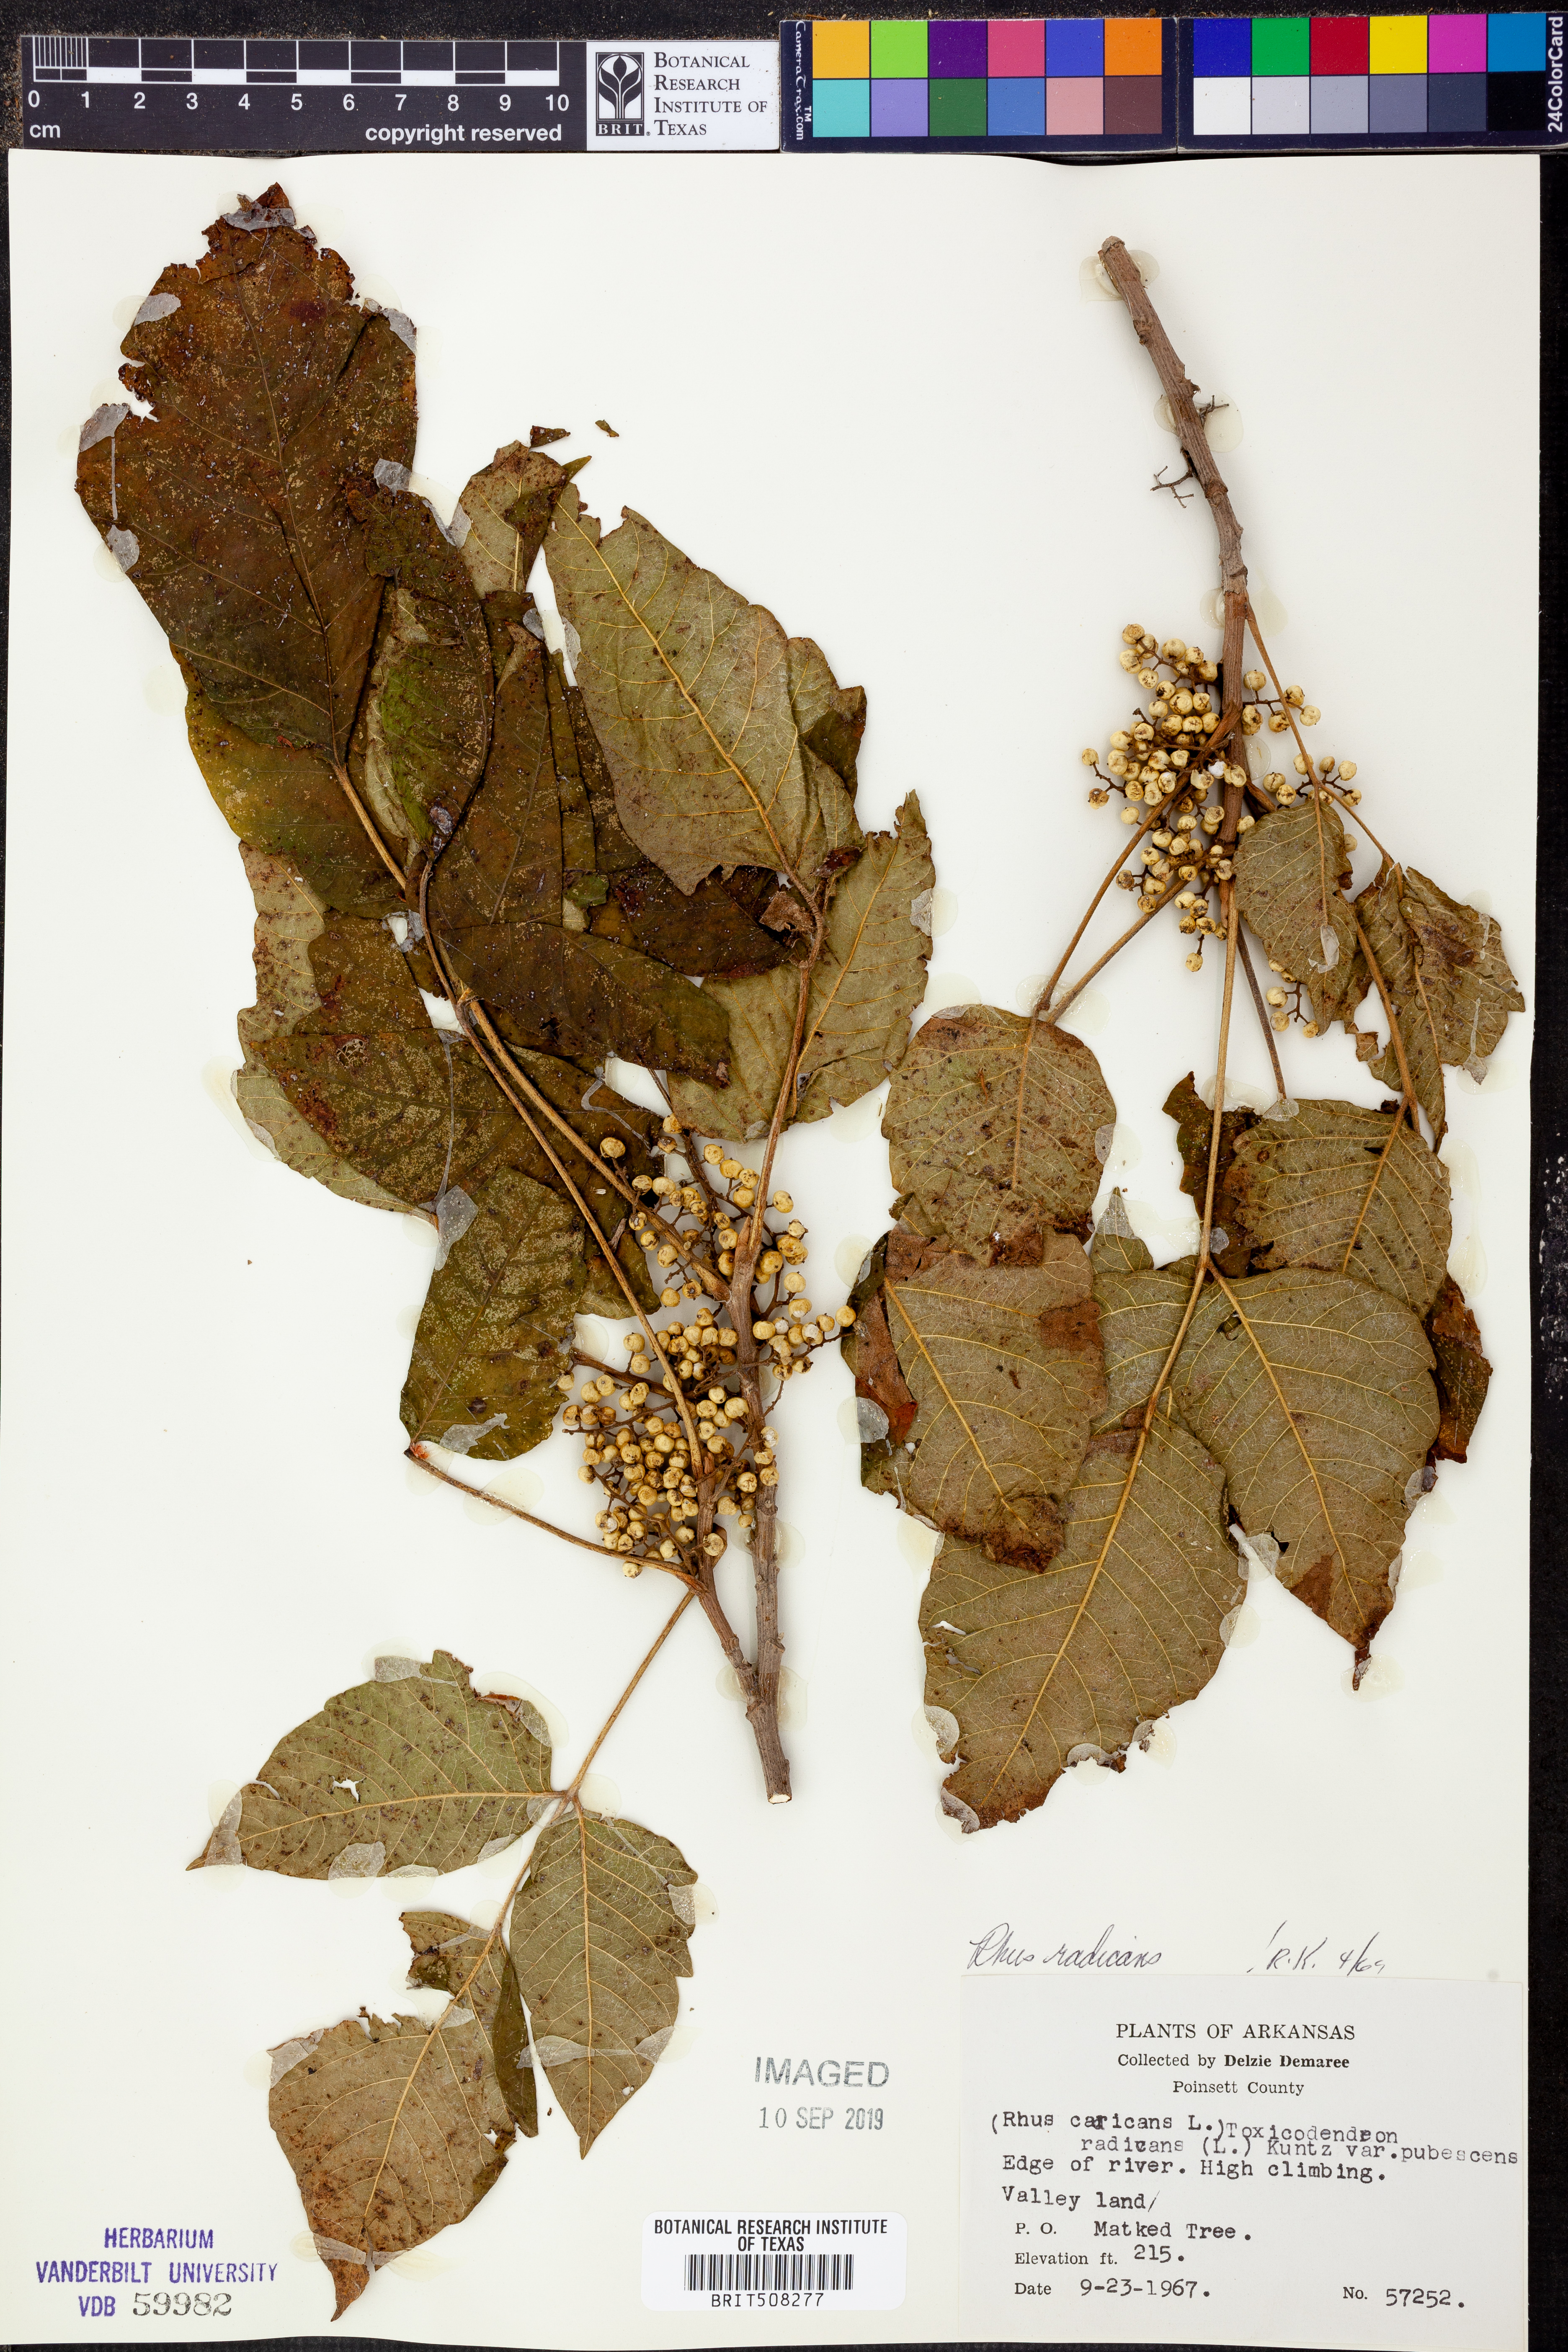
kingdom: Plantae
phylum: Tracheophyta
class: Magnoliopsida
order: Sapindales
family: Anacardiaceae
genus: Toxicodendron
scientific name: Toxicodendron radicans
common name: Poison ivy
